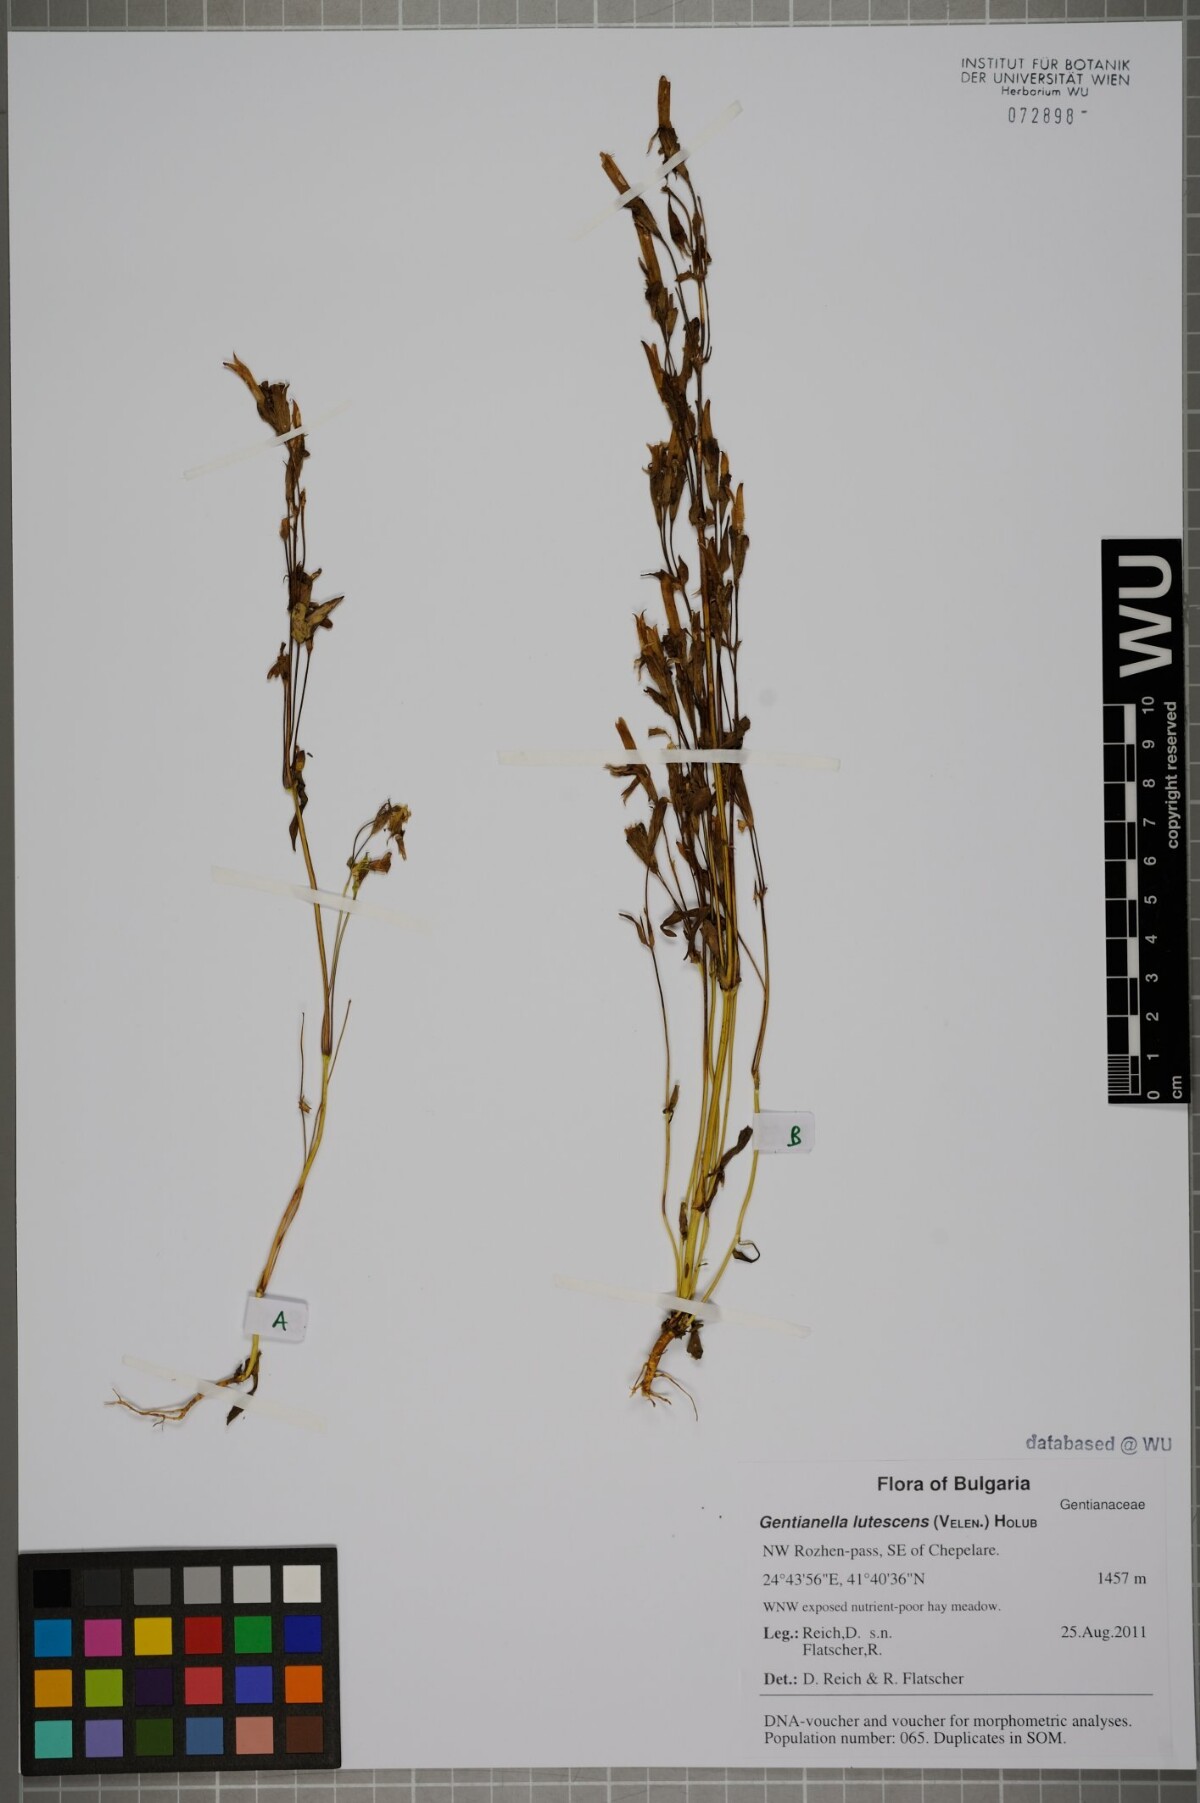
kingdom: Plantae
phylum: Tracheophyta
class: Magnoliopsida
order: Gentianales
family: Gentianaceae
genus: Gentianella
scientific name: Gentianella praecox
